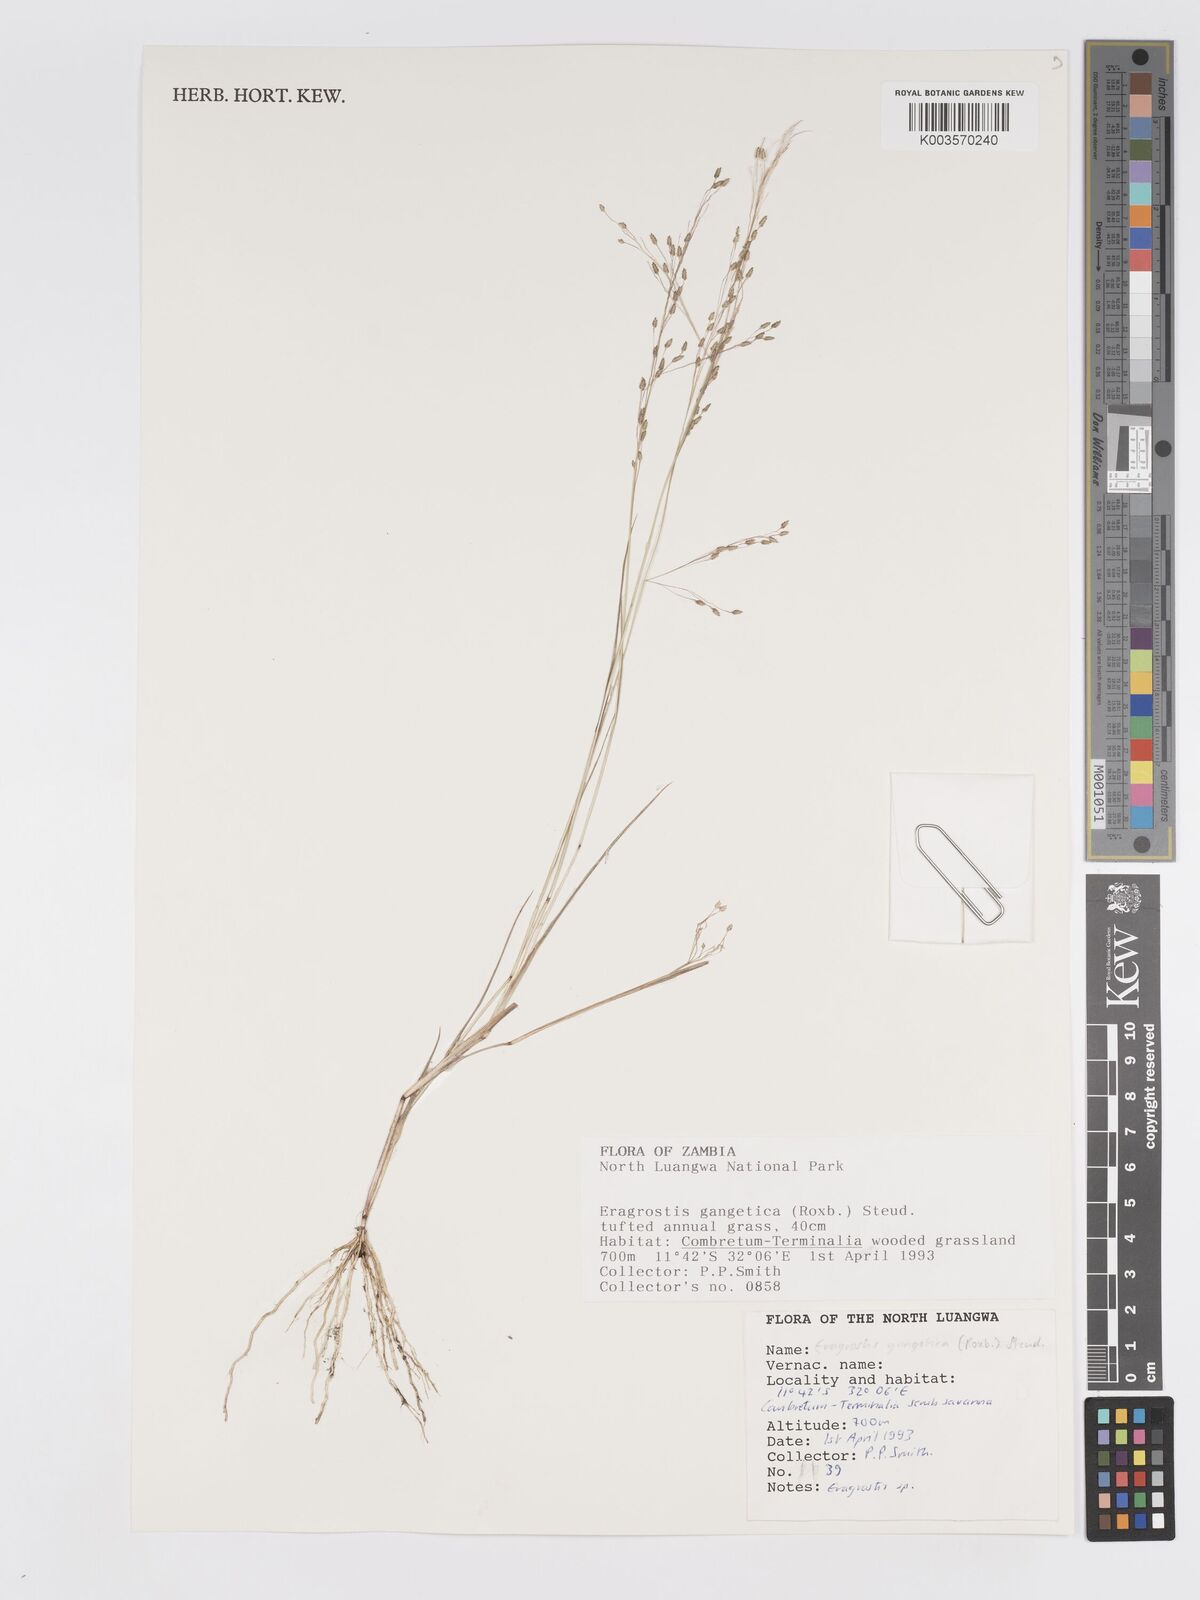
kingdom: Plantae
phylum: Tracheophyta
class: Liliopsida
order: Poales
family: Poaceae
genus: Eragrostis
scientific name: Eragrostis gangetica
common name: Slimflower lovegrass
